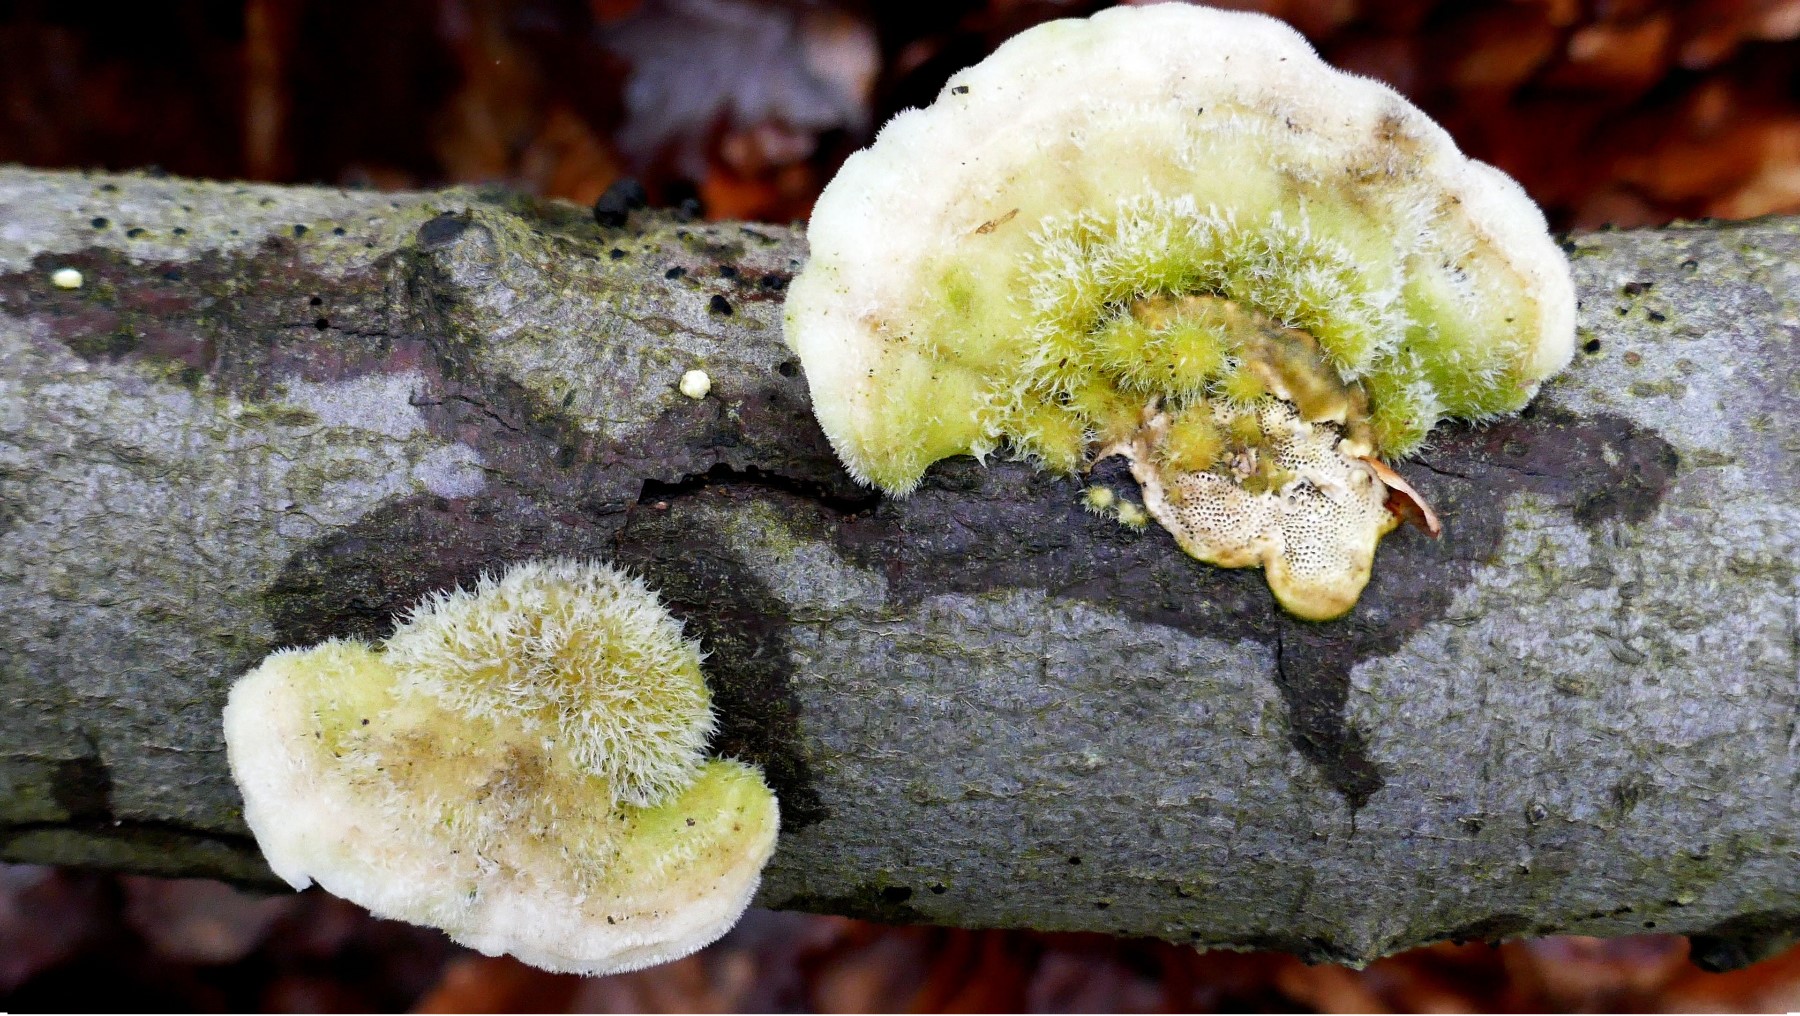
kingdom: Fungi
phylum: Basidiomycota
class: Agaricomycetes
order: Polyporales
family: Polyporaceae
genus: Trametes
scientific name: Trametes hirsuta
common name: håret læderporesvamp
